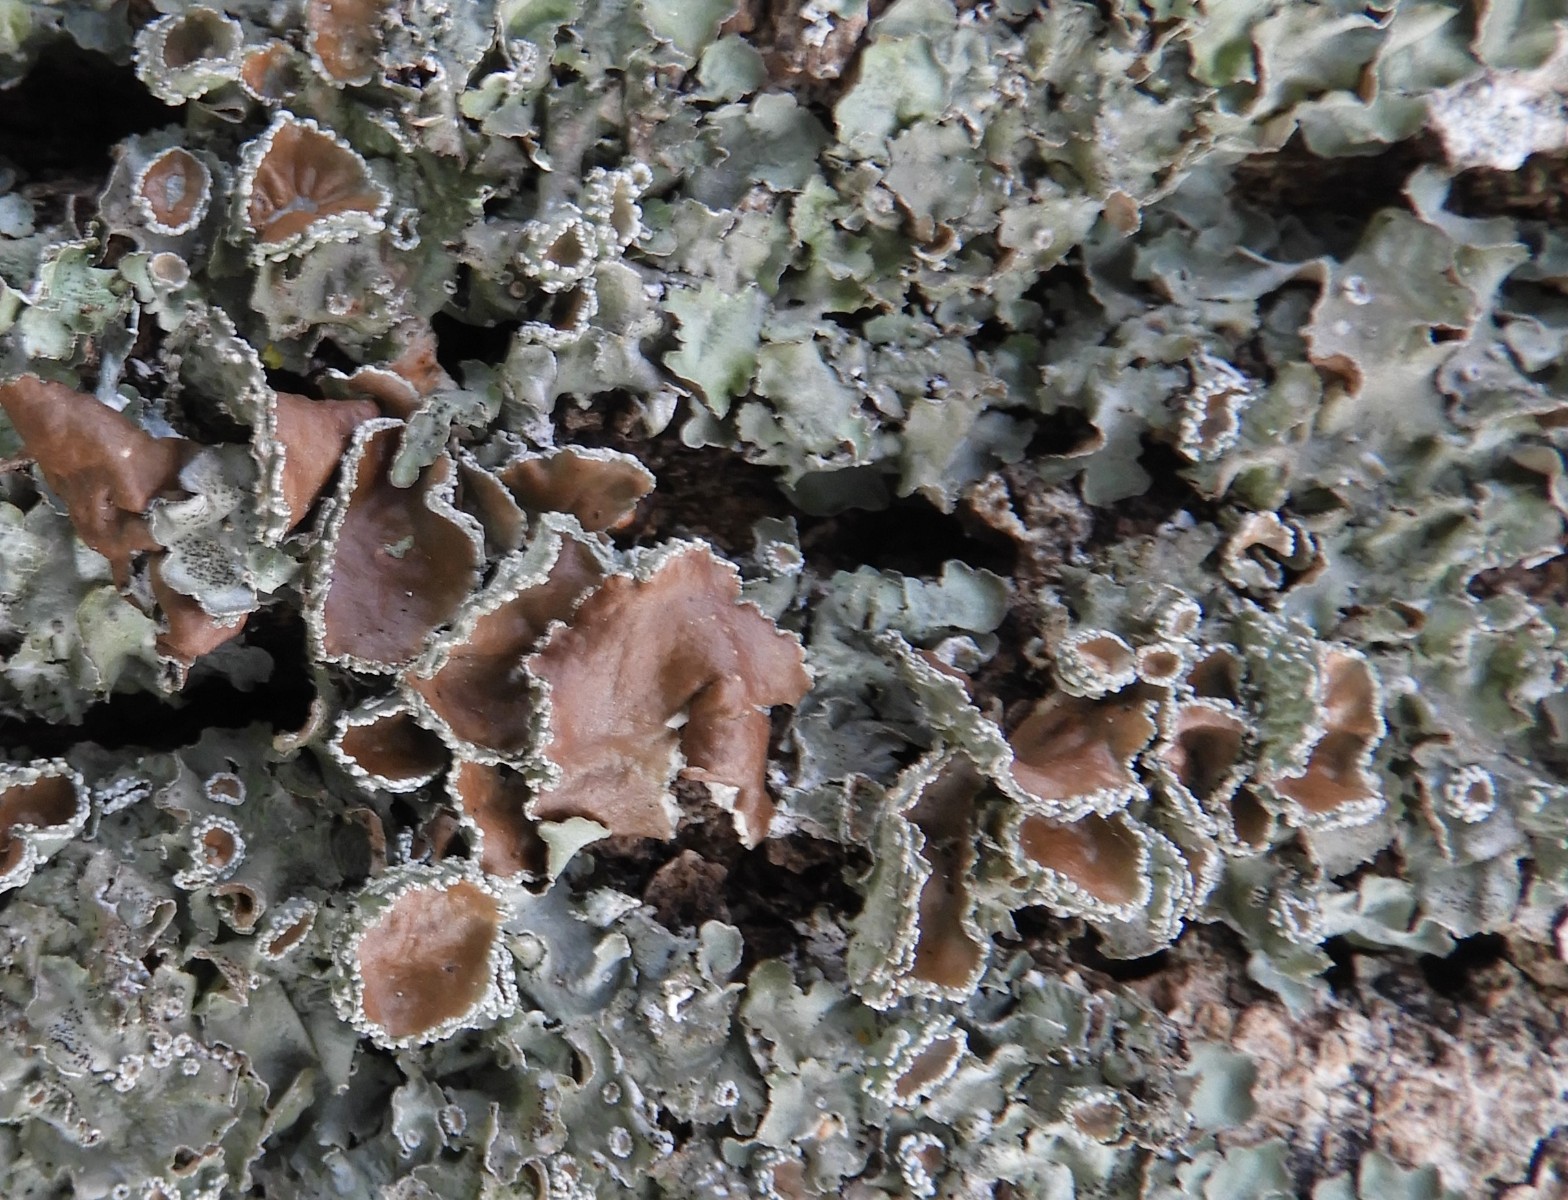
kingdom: Fungi
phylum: Ascomycota
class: Lecanoromycetes
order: Lecanorales
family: Parmeliaceae
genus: Pleurosticta
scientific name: Pleurosticta acetabulum
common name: stor skållav
